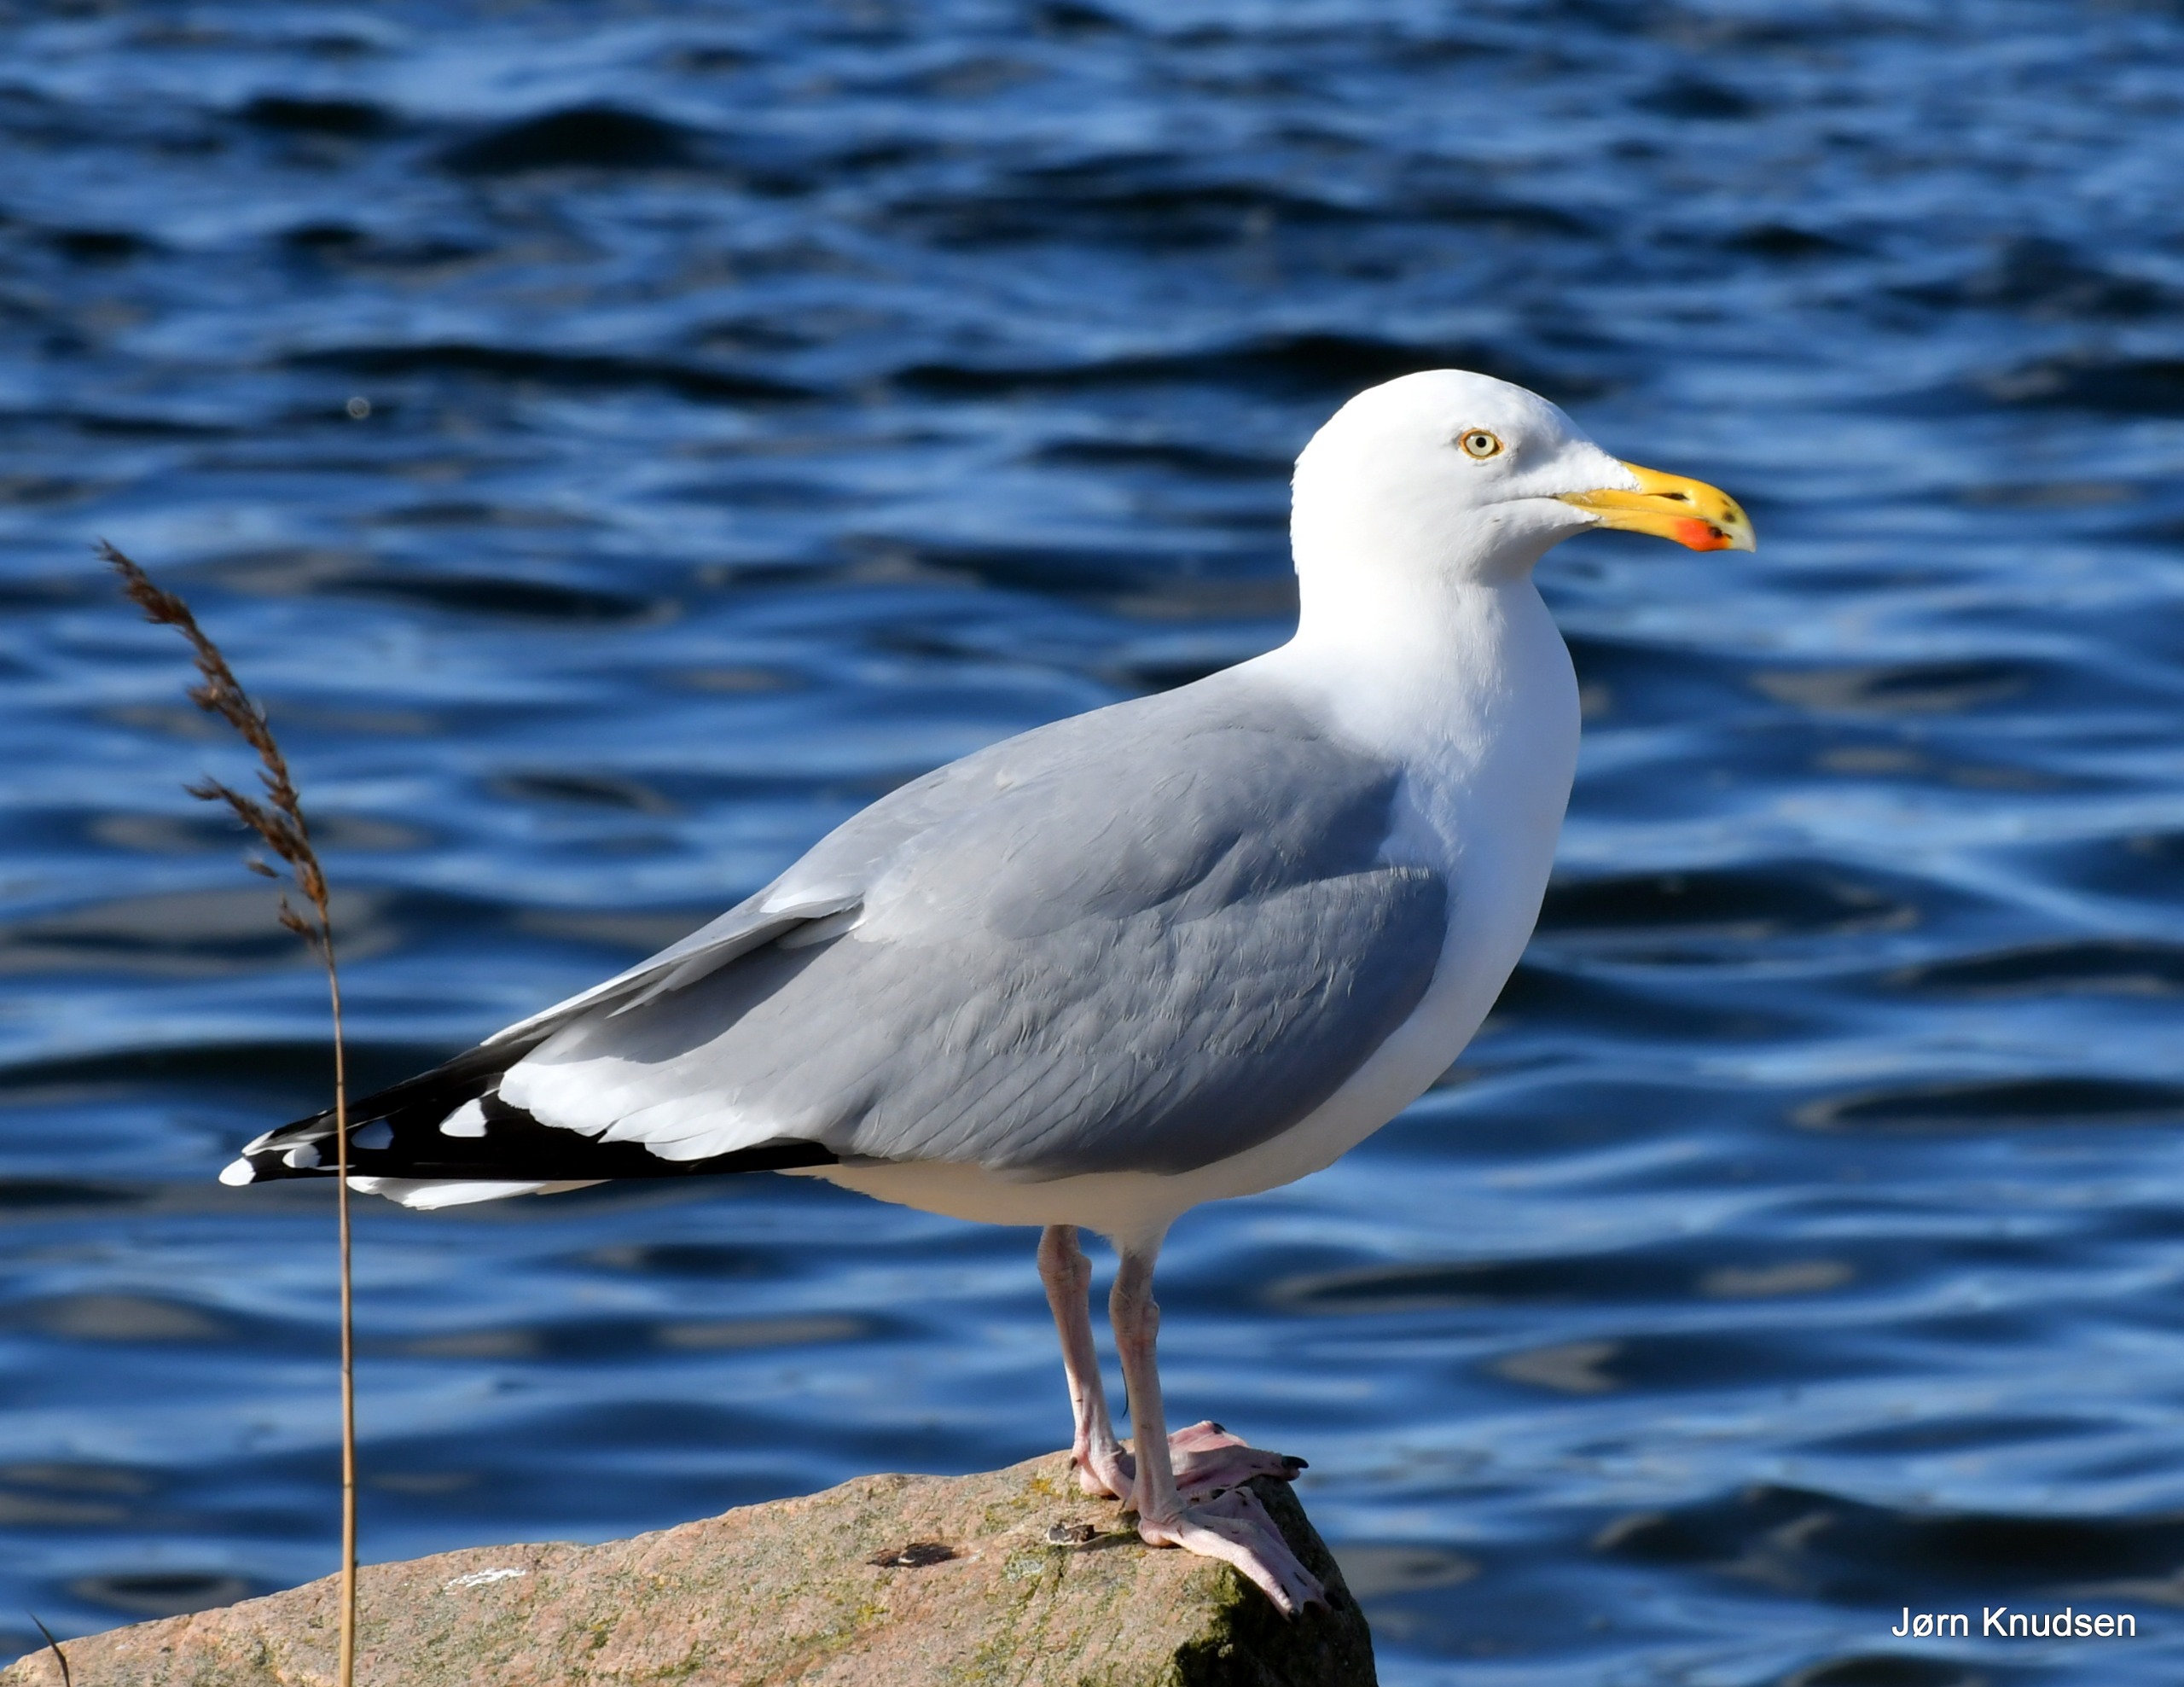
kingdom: Animalia
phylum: Chordata
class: Aves
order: Charadriiformes
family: Laridae
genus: Larus
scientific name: Larus argentatus
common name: Sølvmåge
